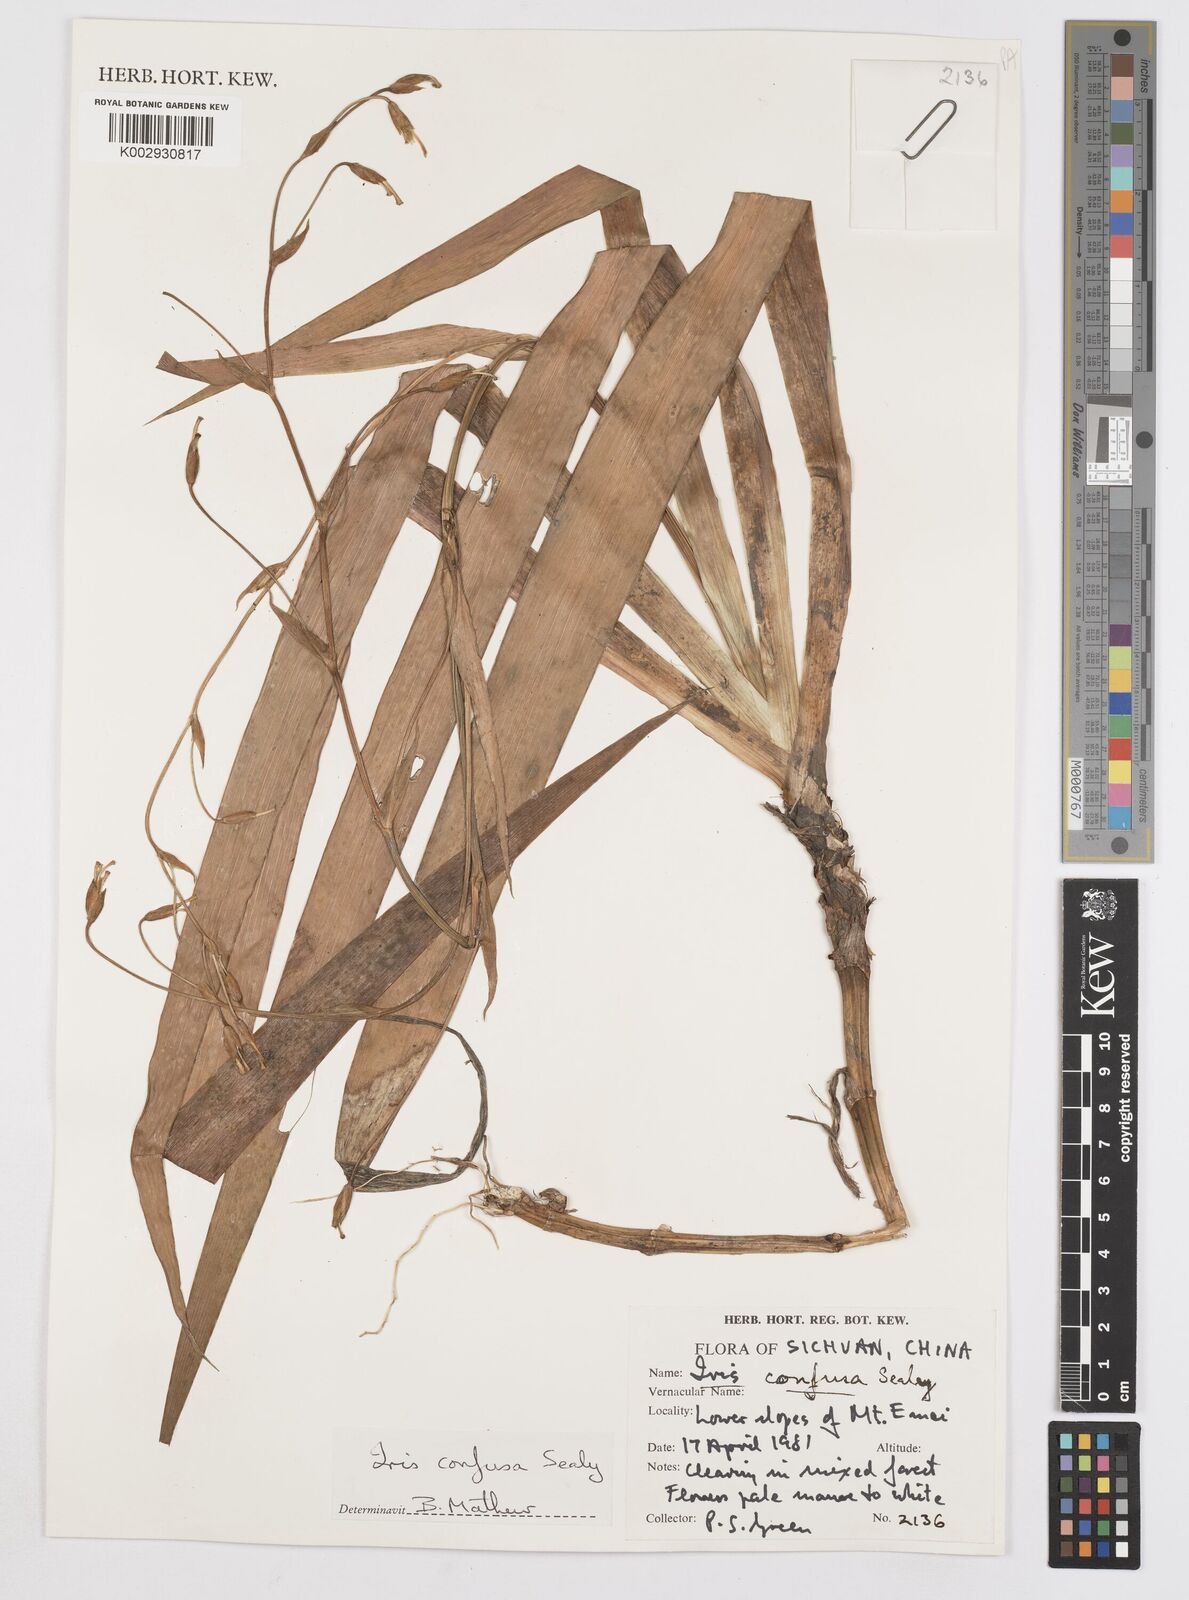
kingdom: Plantae
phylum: Tracheophyta
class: Liliopsida
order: Asparagales
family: Iridaceae
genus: Iris
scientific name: Iris
